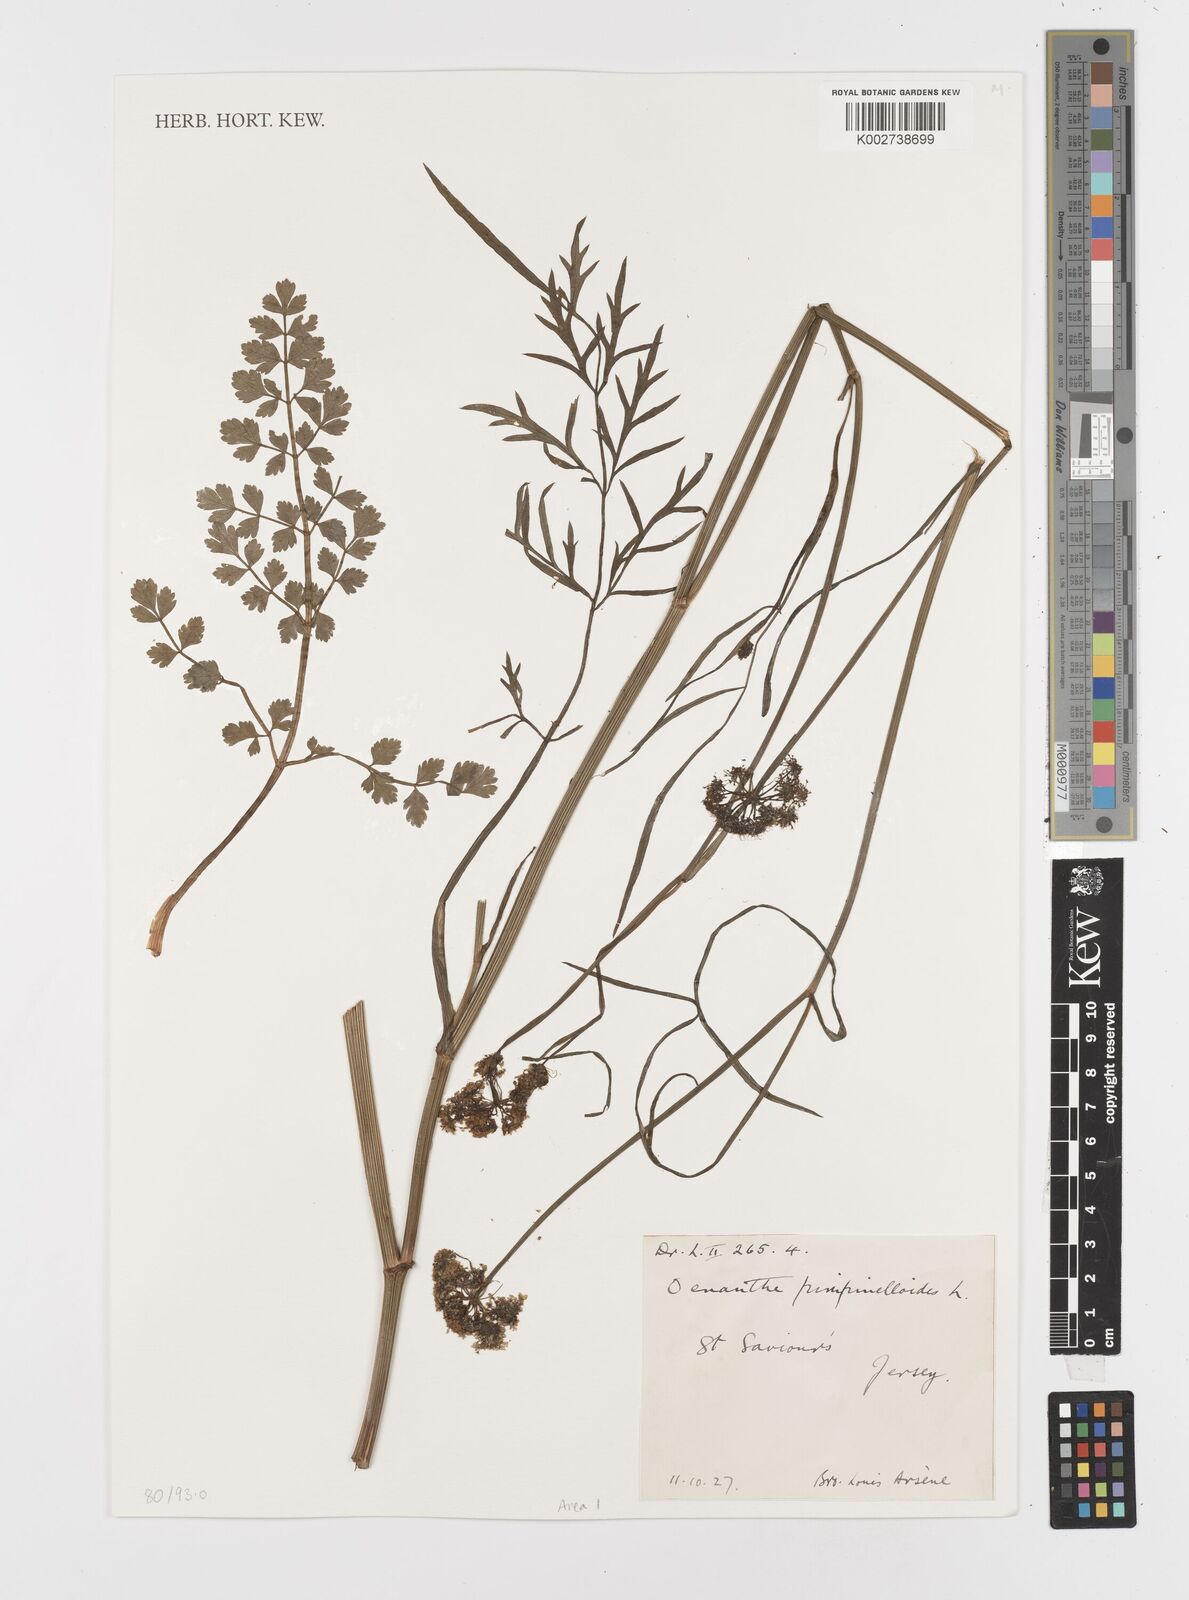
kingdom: Plantae
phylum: Tracheophyta
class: Magnoliopsida
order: Apiales
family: Apiaceae
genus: Oenanthe
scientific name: Oenanthe pimpinelloides
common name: Corky-fruited water-dropwort
